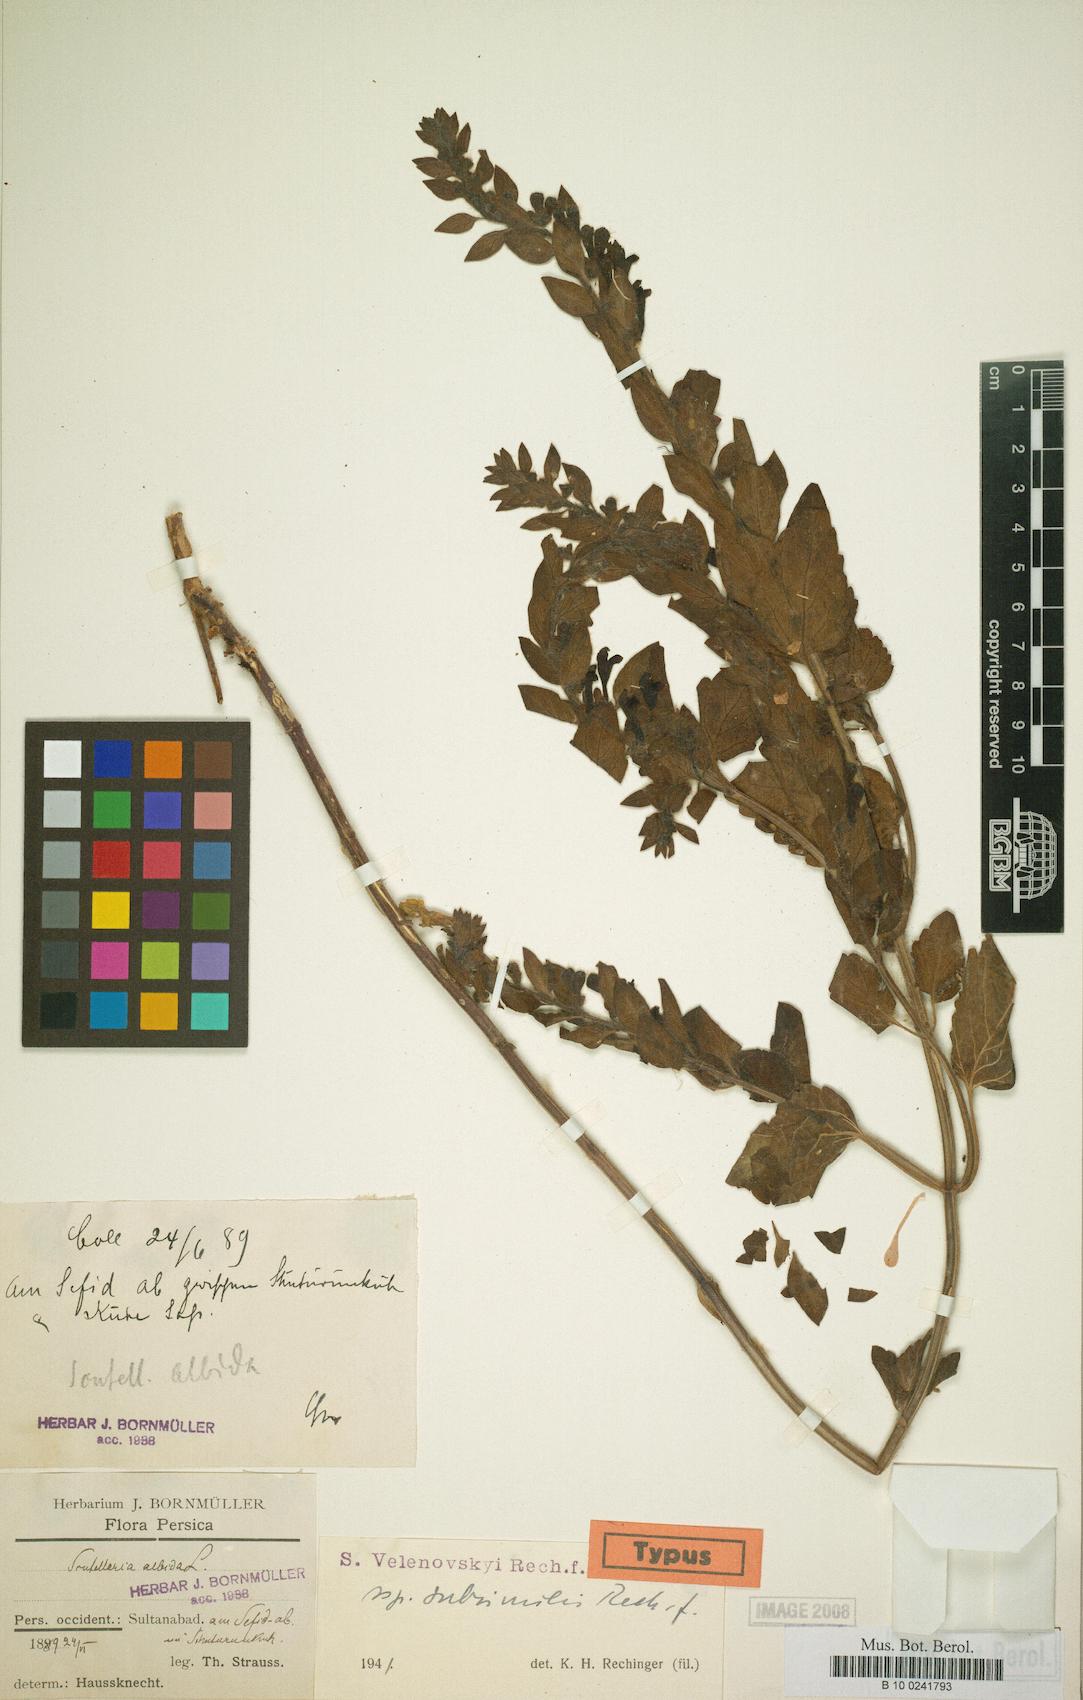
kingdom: Plantae
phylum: Tracheophyta
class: Magnoliopsida
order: Lamiales
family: Lamiaceae
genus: Scutellaria
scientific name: Scutellaria albida
